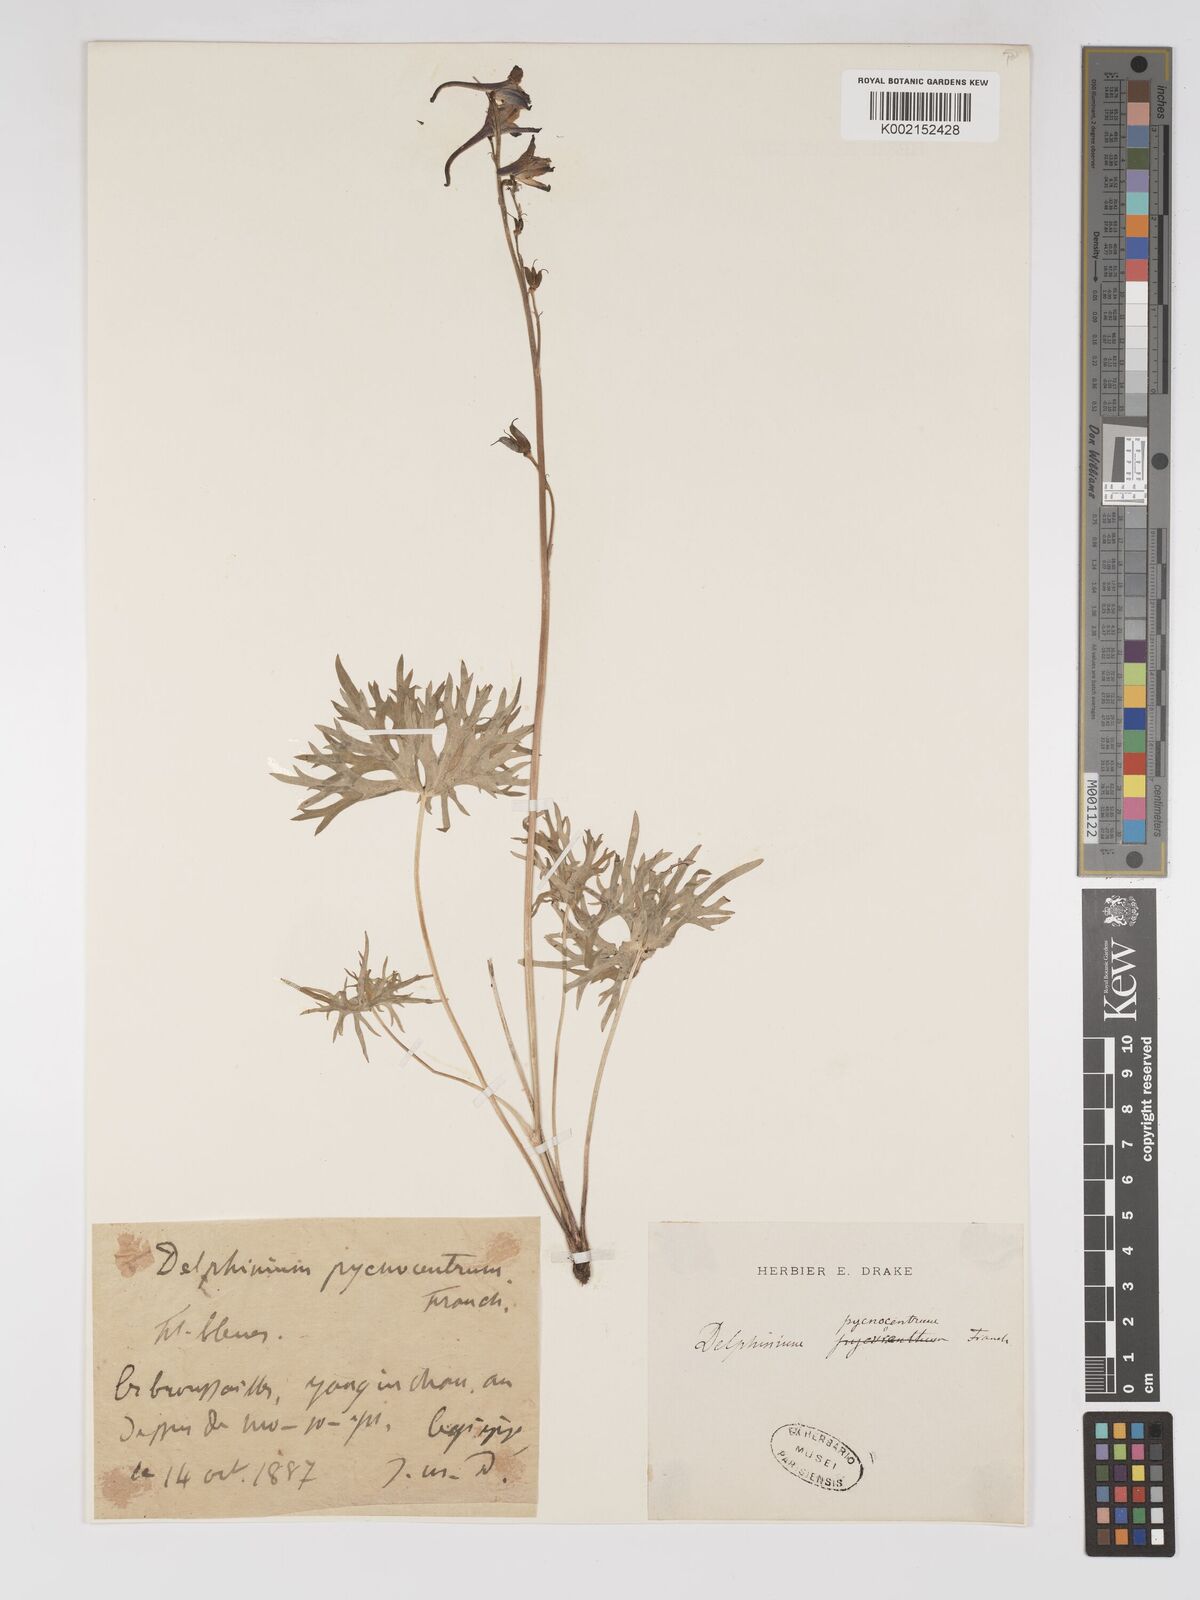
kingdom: Plantae
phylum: Tracheophyta
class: Magnoliopsida
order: Ranunculales
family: Ranunculaceae
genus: Delphinium
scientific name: Delphinium pycnocentrum
